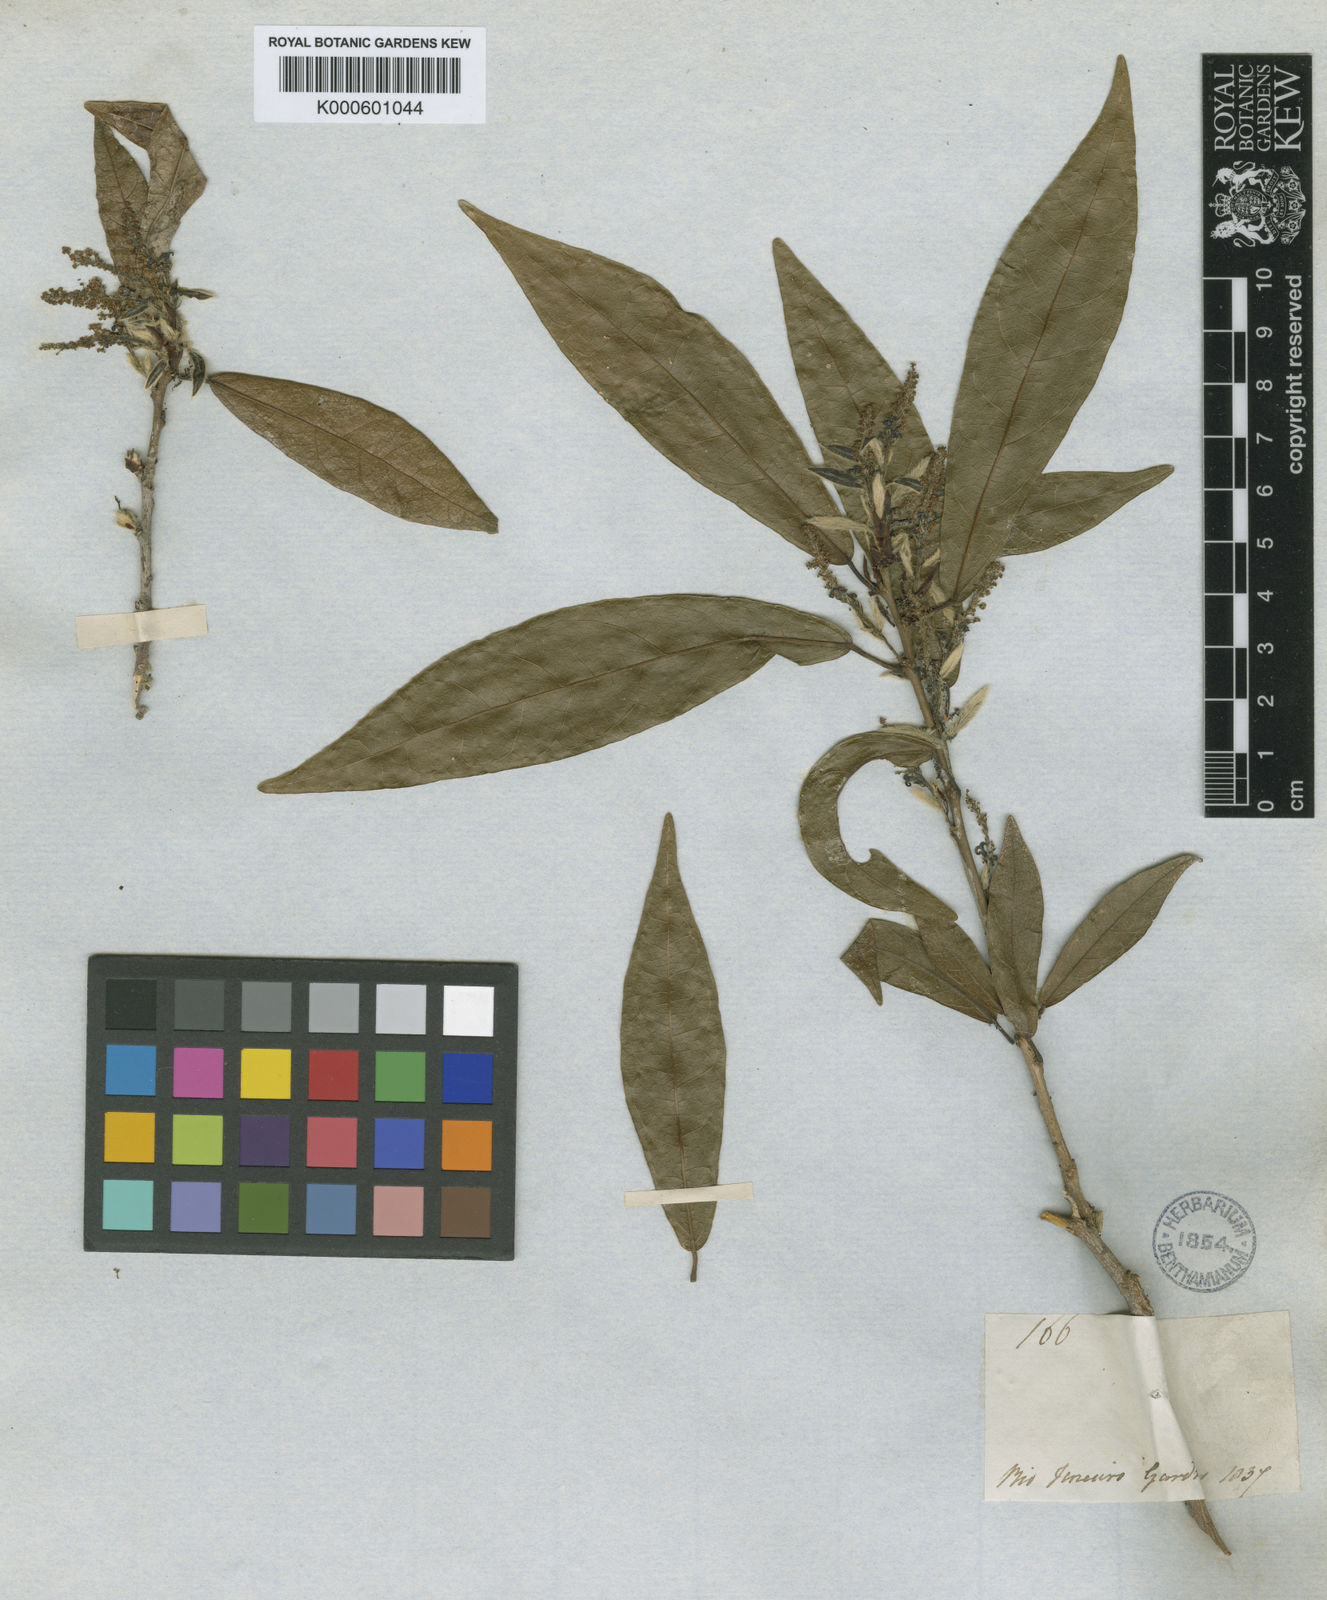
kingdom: Plantae
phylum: Tracheophyta
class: Magnoliopsida
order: Malpighiales
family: Euphorbiaceae
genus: Actinostemon
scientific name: Actinostemon
